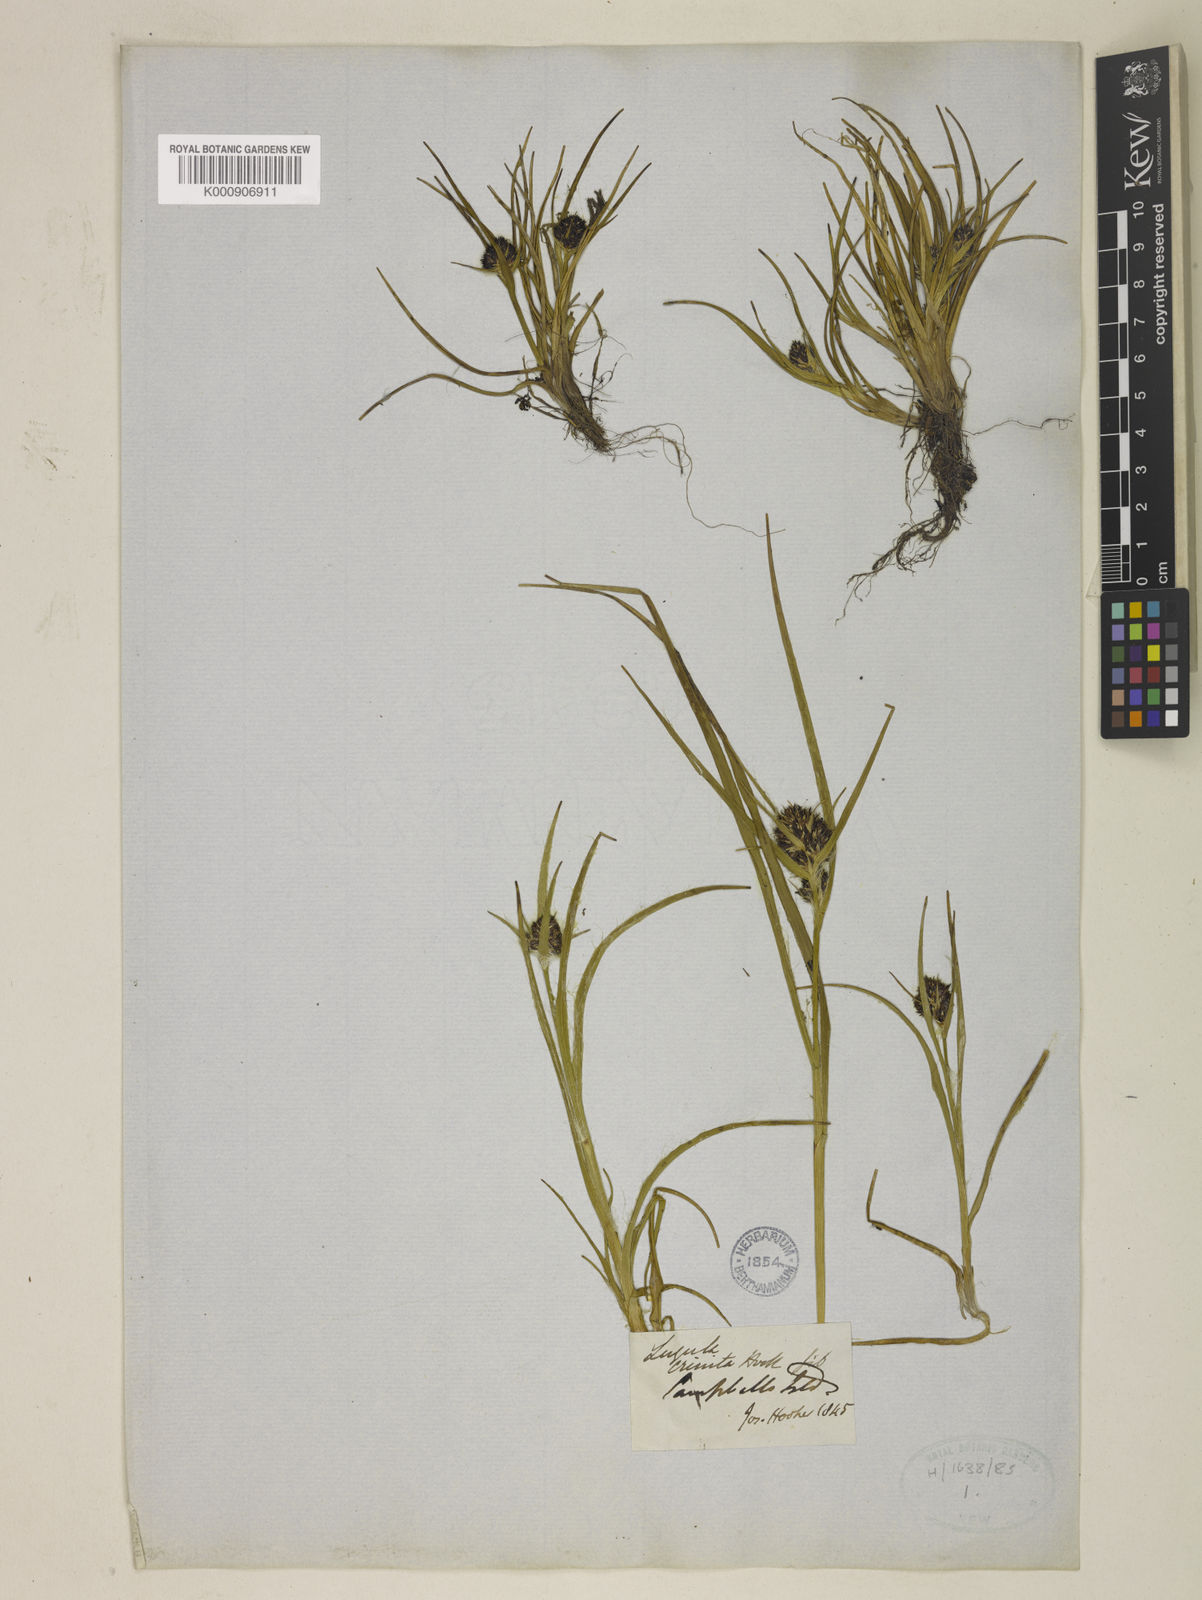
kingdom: Plantae
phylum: Tracheophyta
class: Liliopsida
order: Poales
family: Juncaceae
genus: Luzula
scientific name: Luzula crinita
